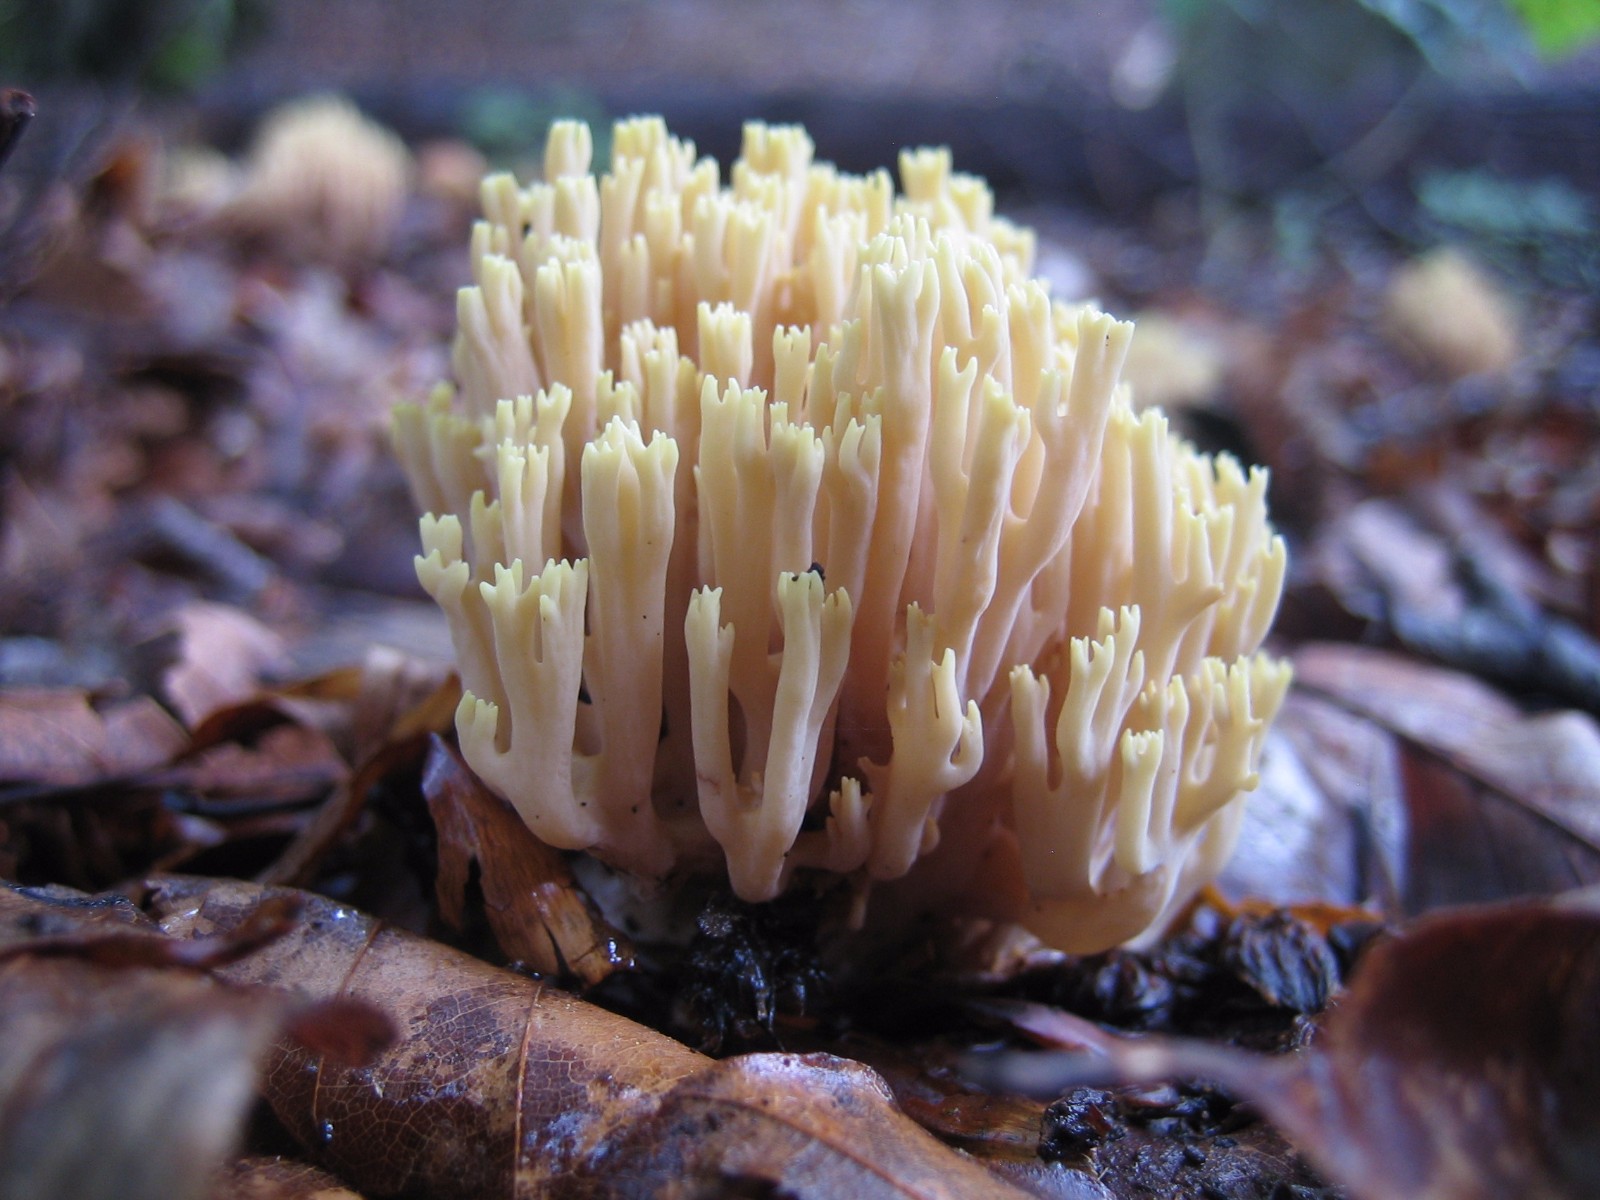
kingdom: Fungi
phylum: Basidiomycota
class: Agaricomycetes
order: Gomphales
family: Gomphaceae
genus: Ramaria
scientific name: Ramaria stricta
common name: rank koralsvamp
